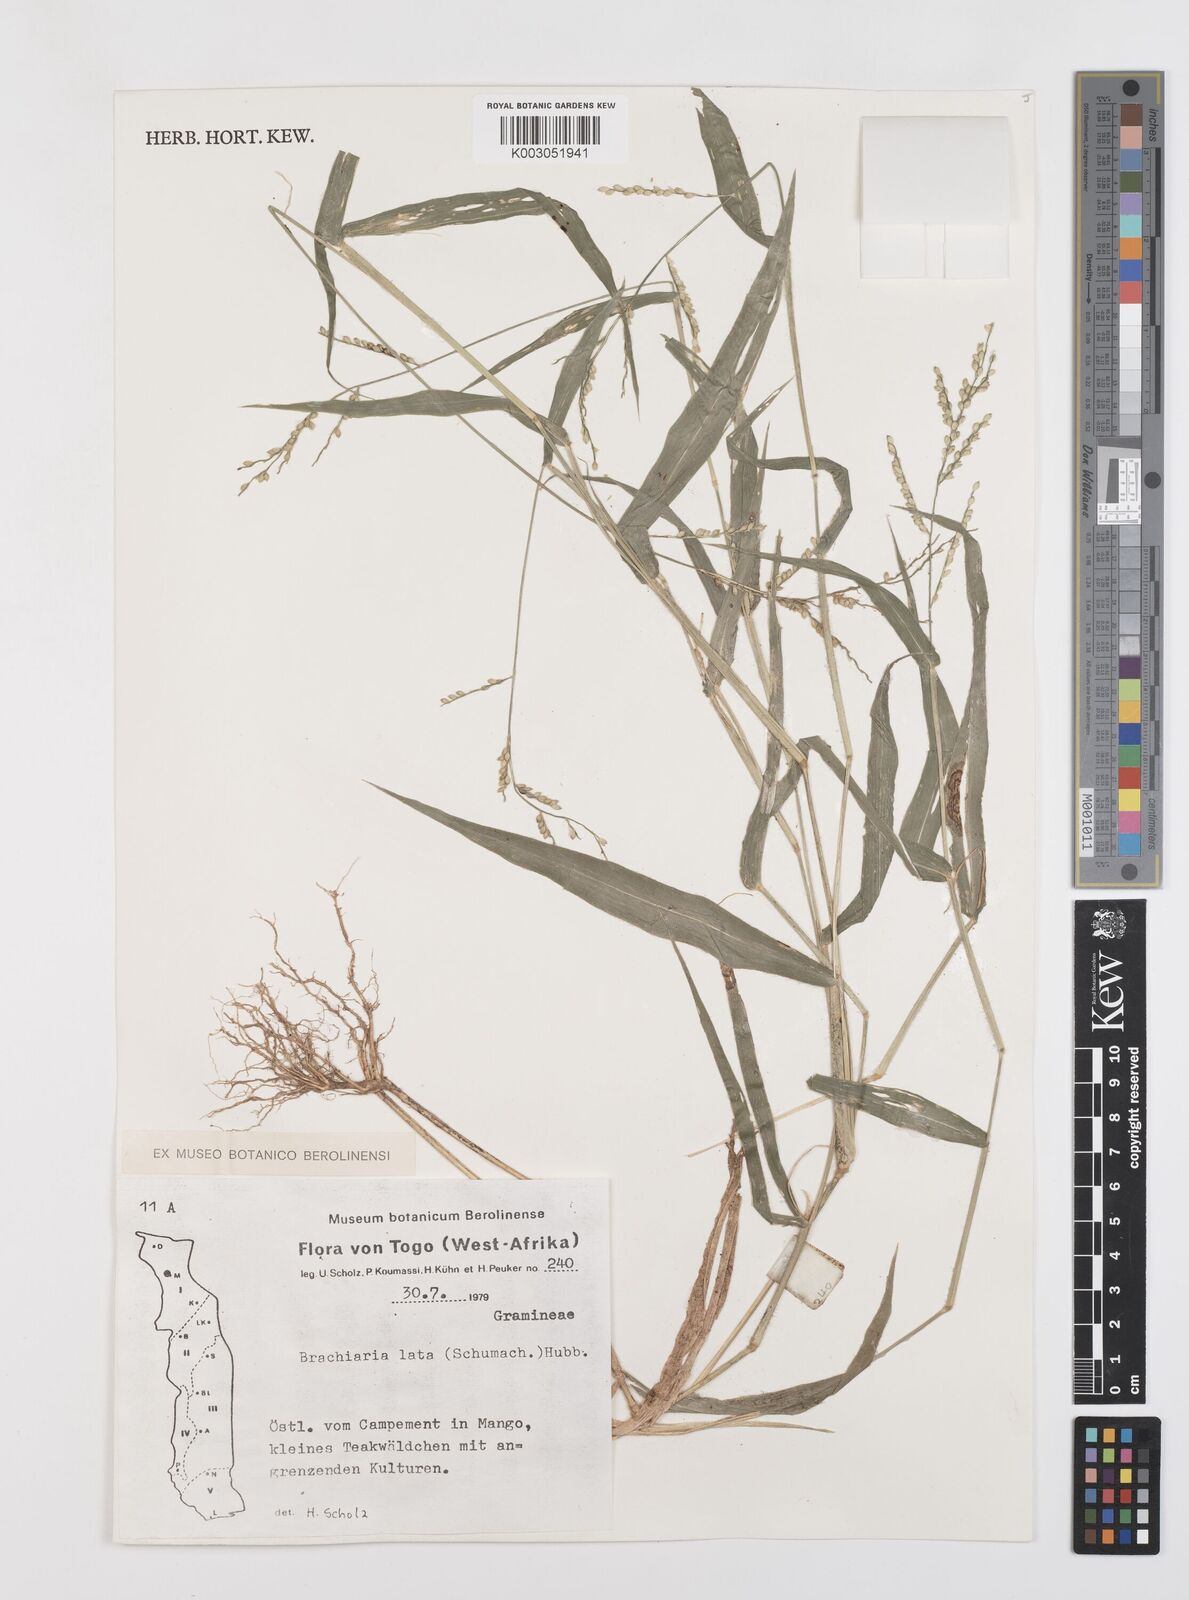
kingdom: Plantae
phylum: Tracheophyta
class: Liliopsida
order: Poales
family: Poaceae
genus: Urochloa
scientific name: Urochloa lata
